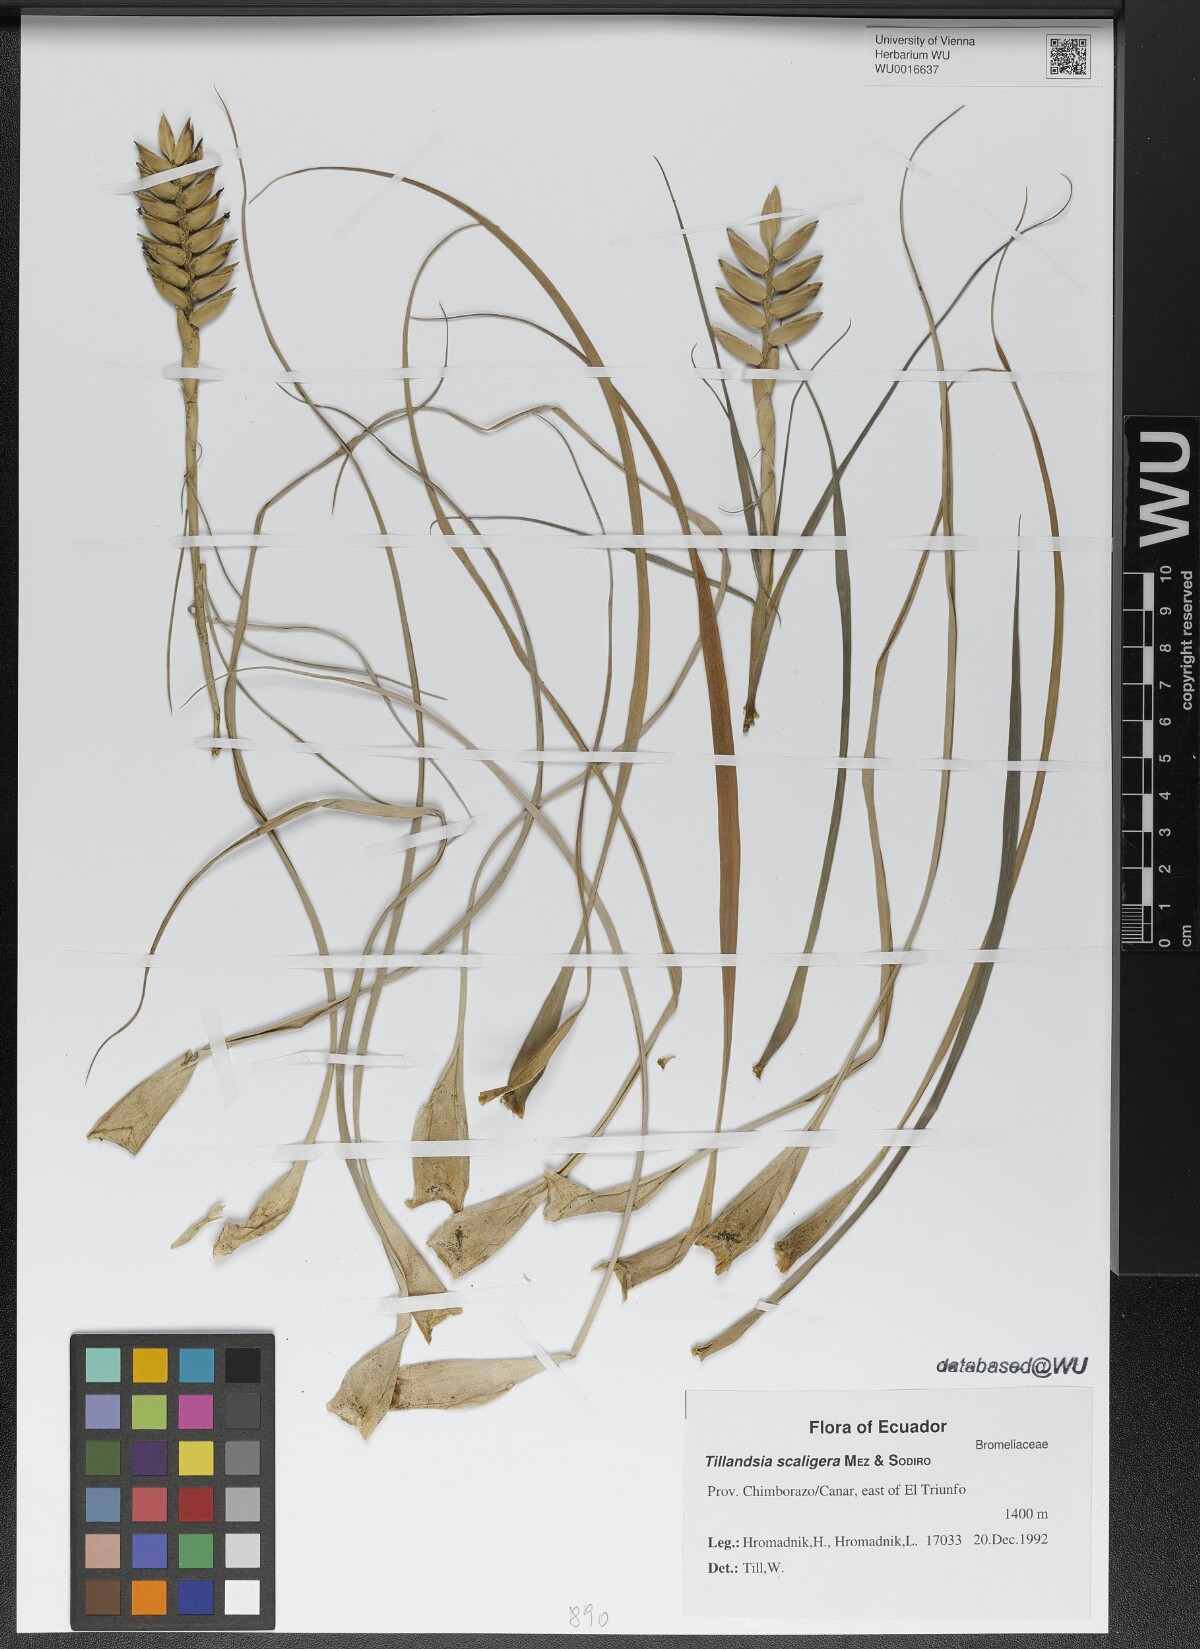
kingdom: Plantae
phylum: Tracheophyta
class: Liliopsida
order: Poales
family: Bromeliaceae
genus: Lemeltonia
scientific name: Lemeltonia scaligera
